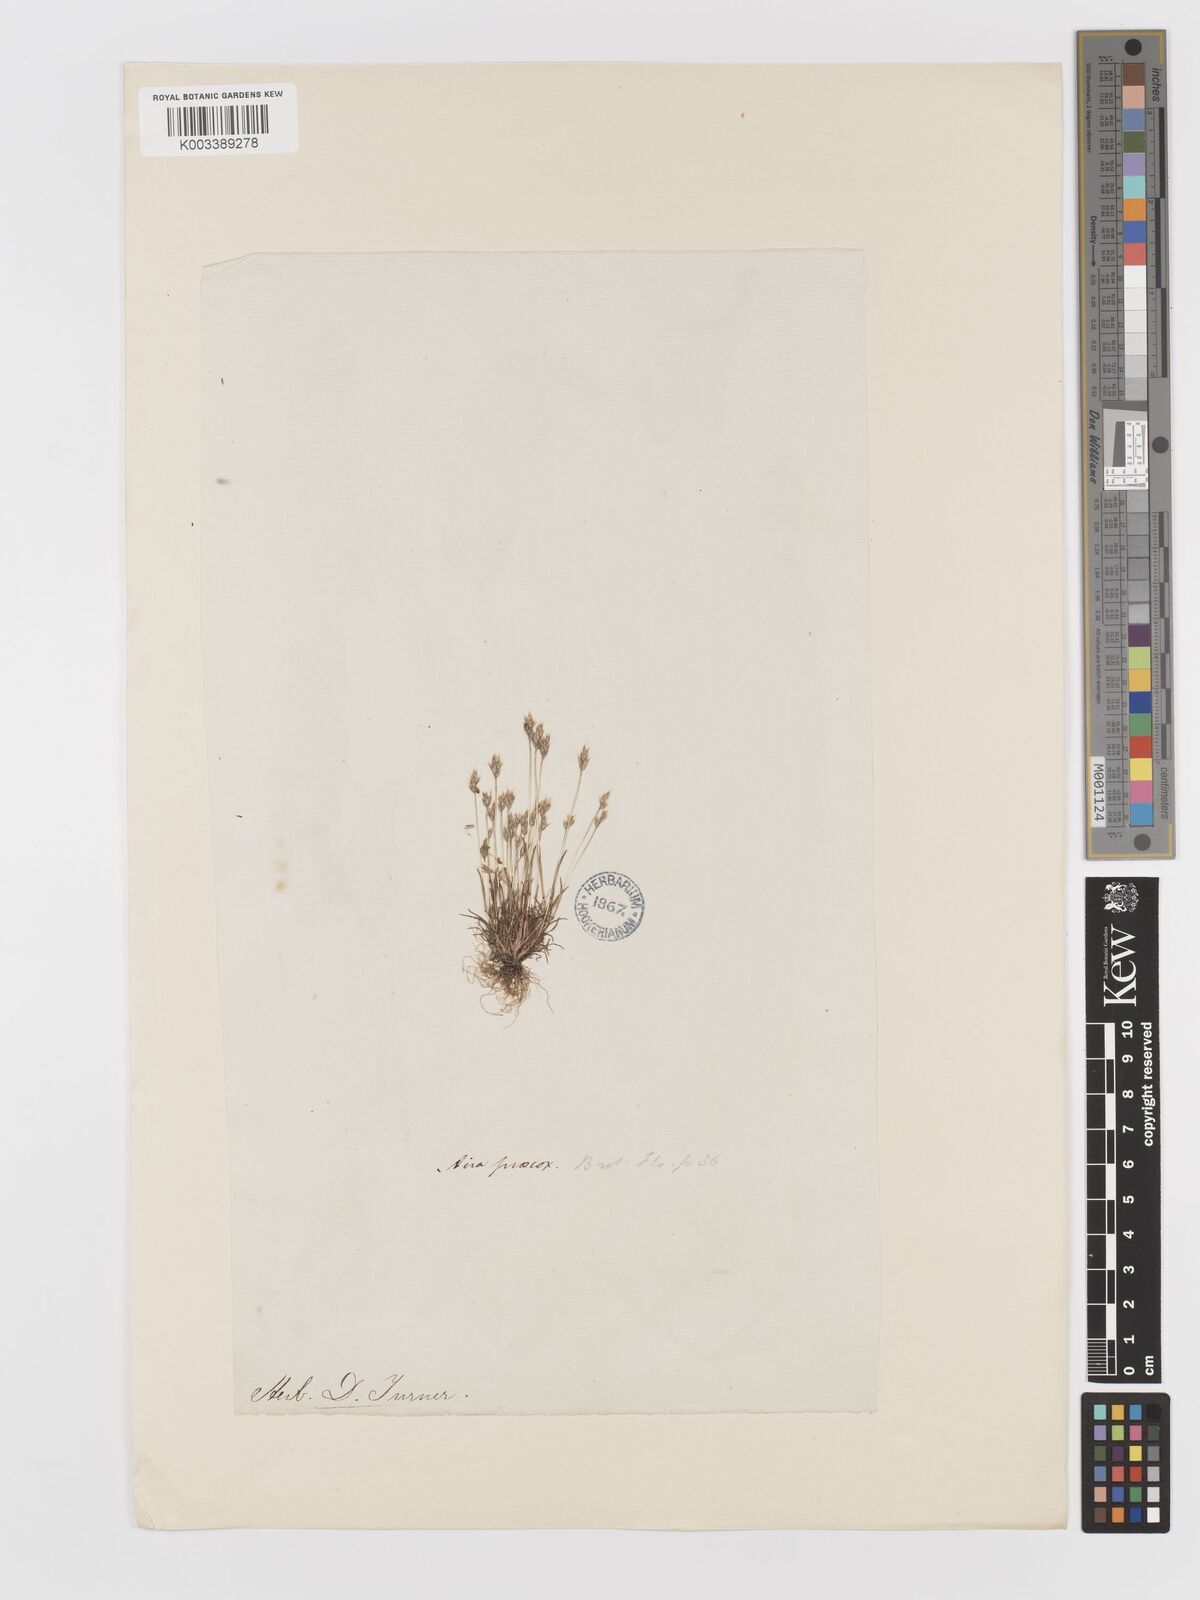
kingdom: Plantae
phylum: Tracheophyta
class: Liliopsida
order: Poales
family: Poaceae
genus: Aira
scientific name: Aira praecox
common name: Early hair-grass
